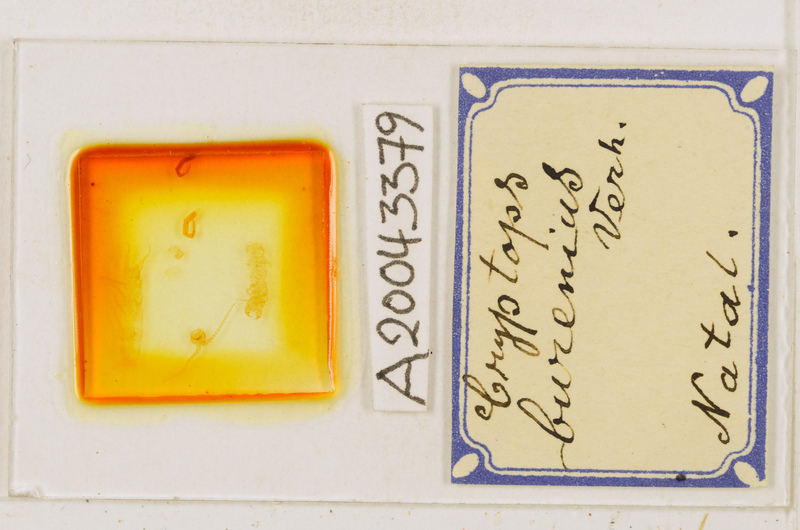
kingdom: Animalia
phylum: Arthropoda
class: Chilopoda
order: Scolopendromorpha
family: Cryptopidae
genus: Cryptops
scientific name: Cryptops burenius
